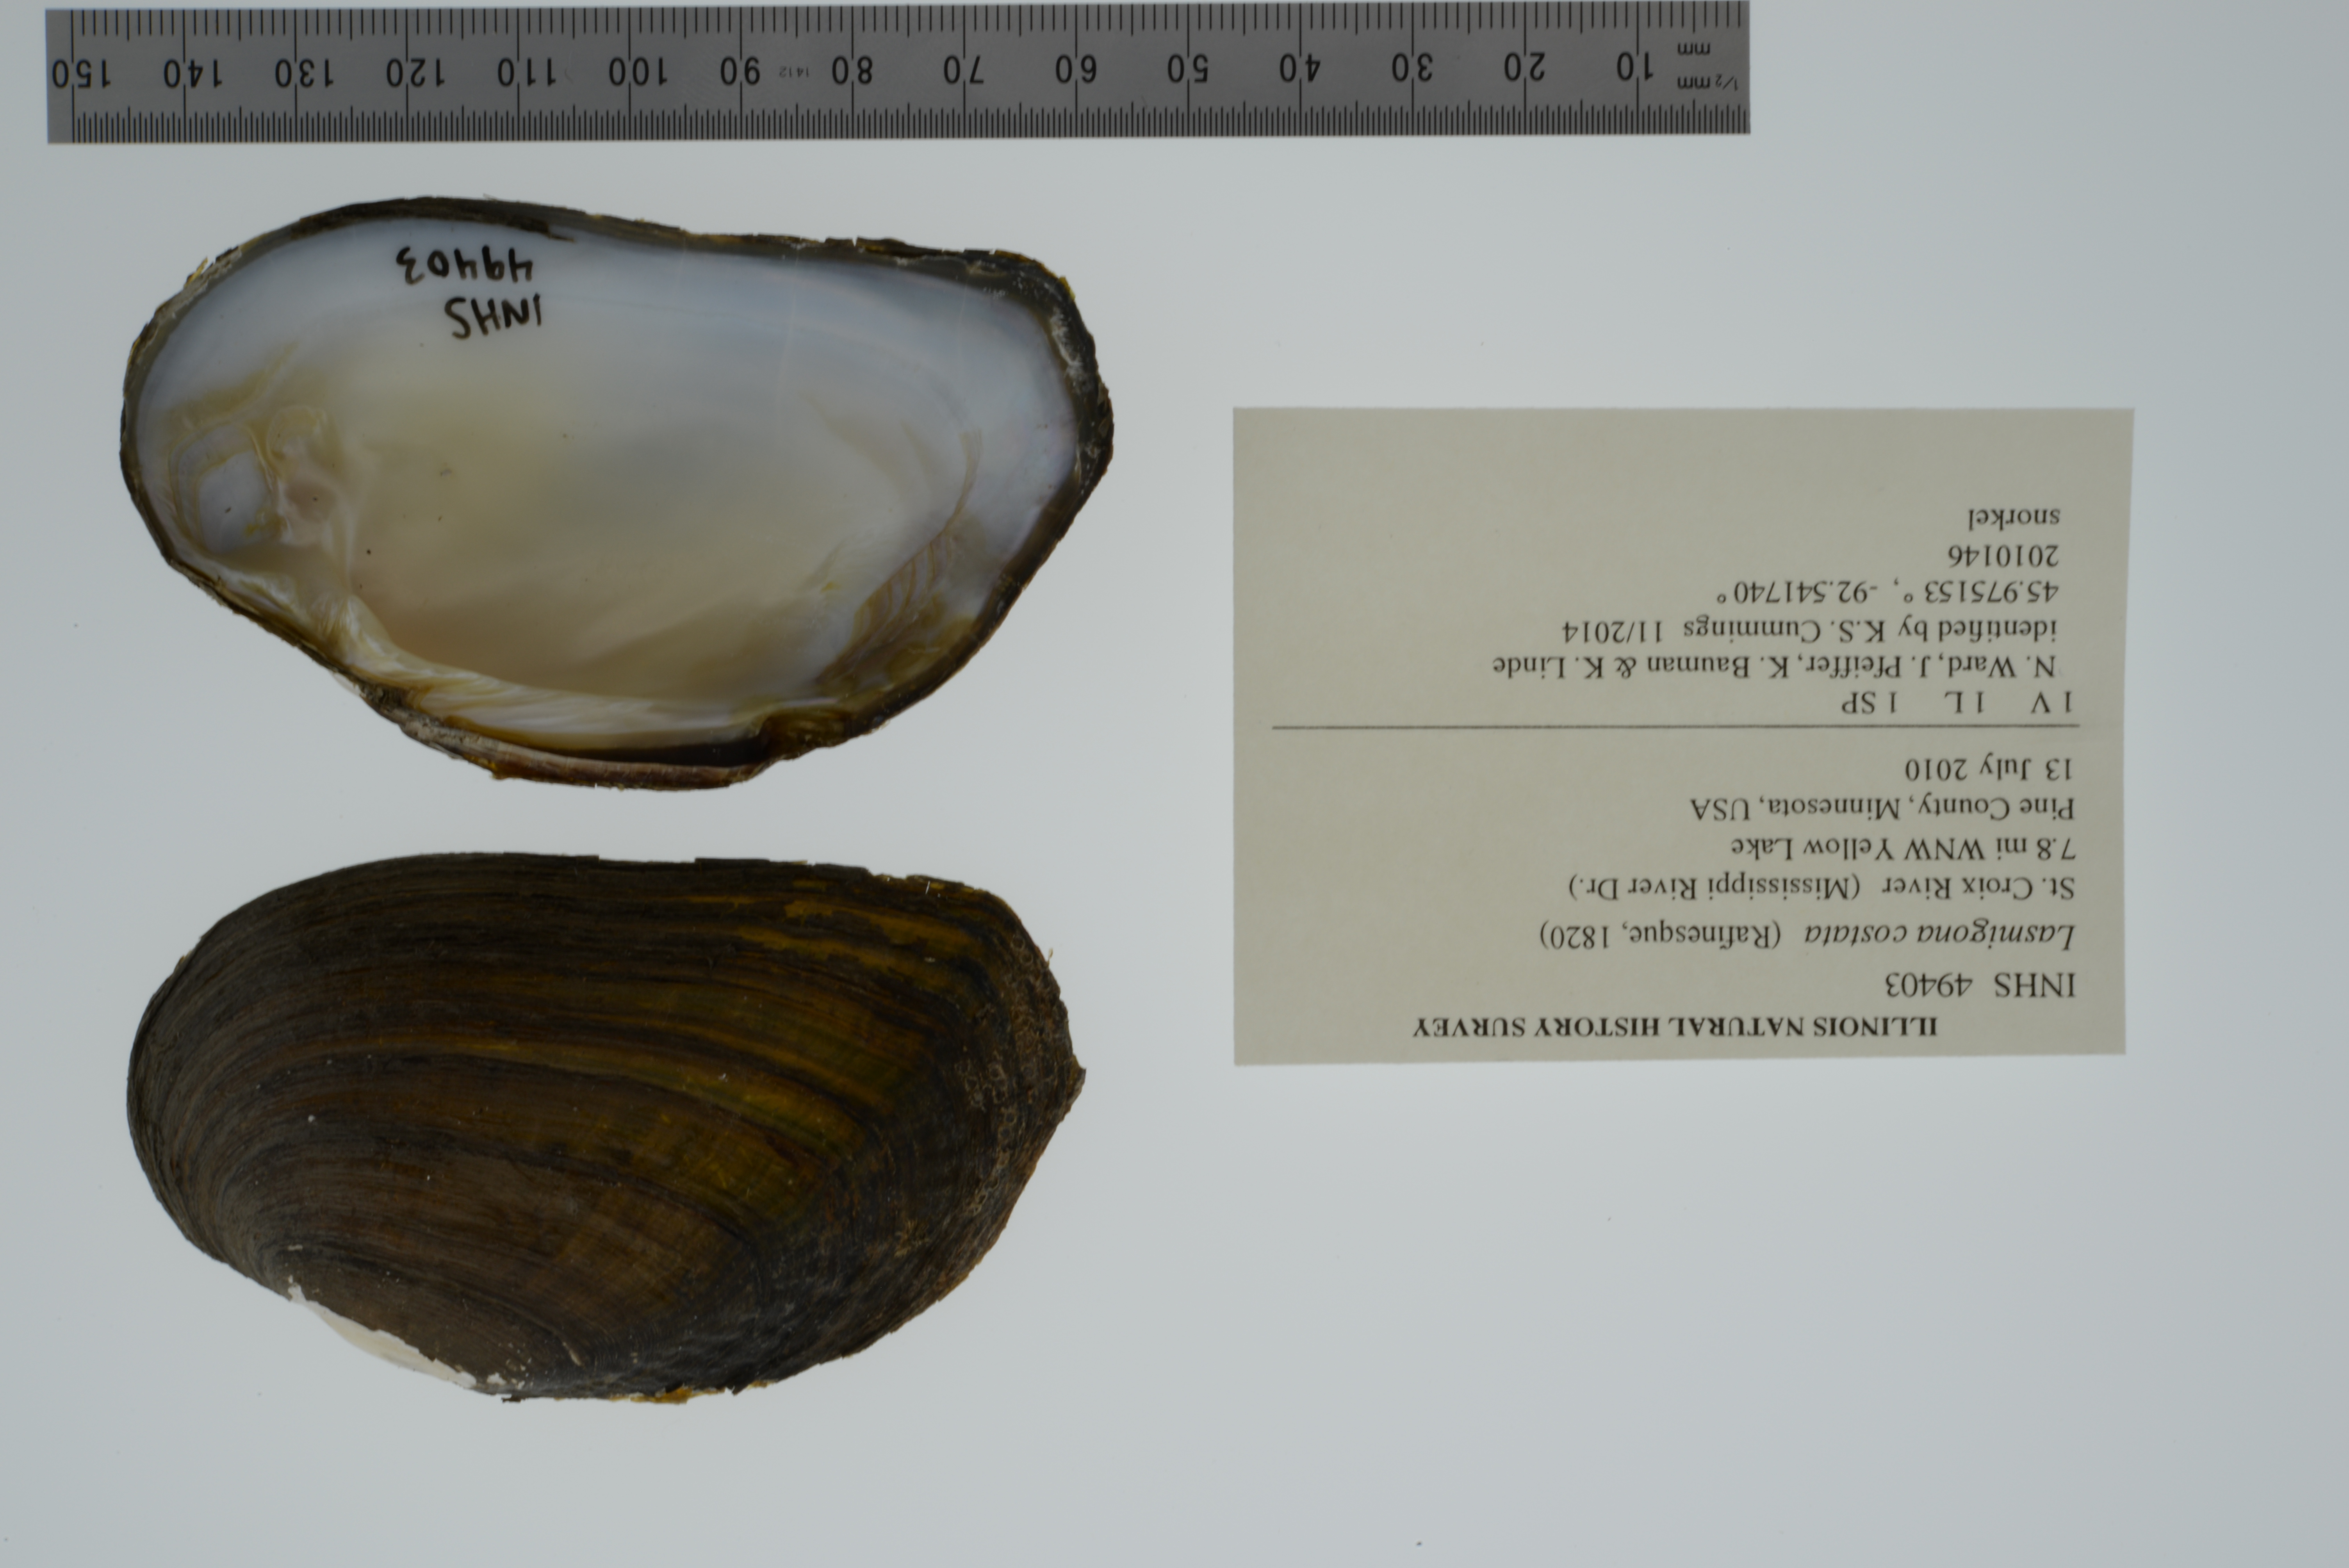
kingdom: Animalia
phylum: Mollusca
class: Bivalvia
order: Unionida
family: Unionidae
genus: Lasmigona
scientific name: Lasmigona costata
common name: Flutedshell
